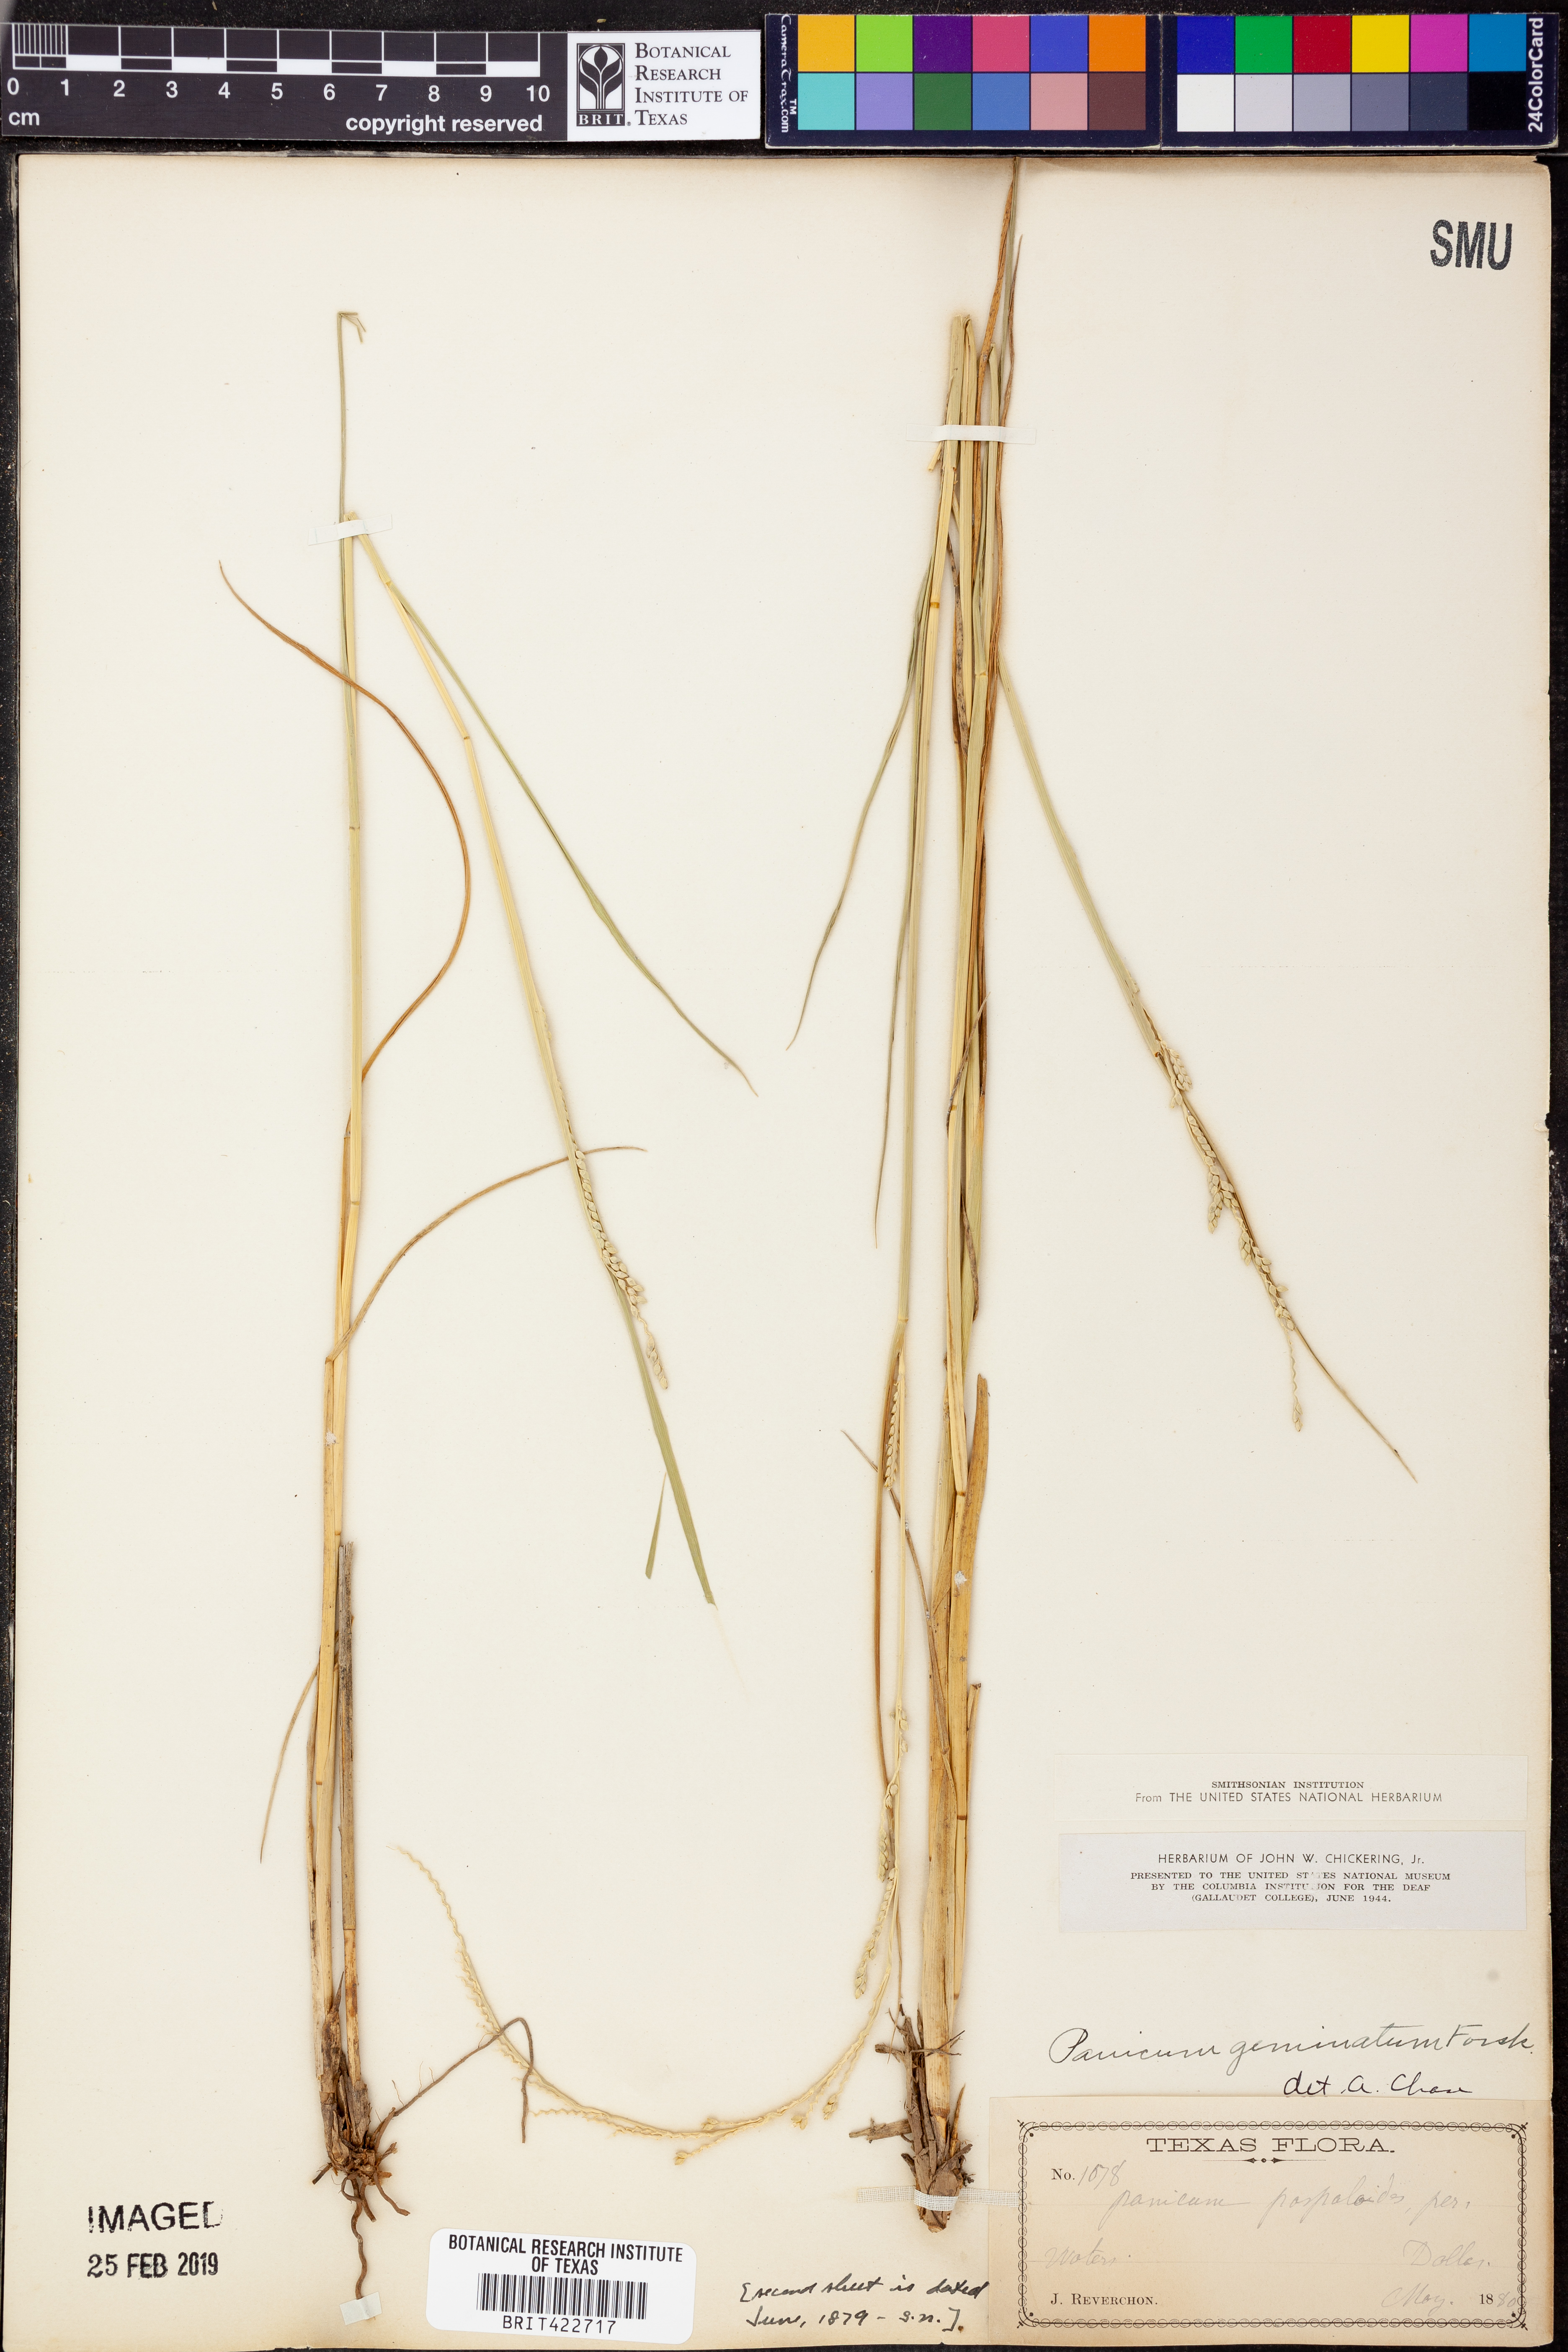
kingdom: Plantae
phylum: Tracheophyta
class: Liliopsida
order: Poales
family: Poaceae
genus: Setaria
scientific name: Setaria geminata
